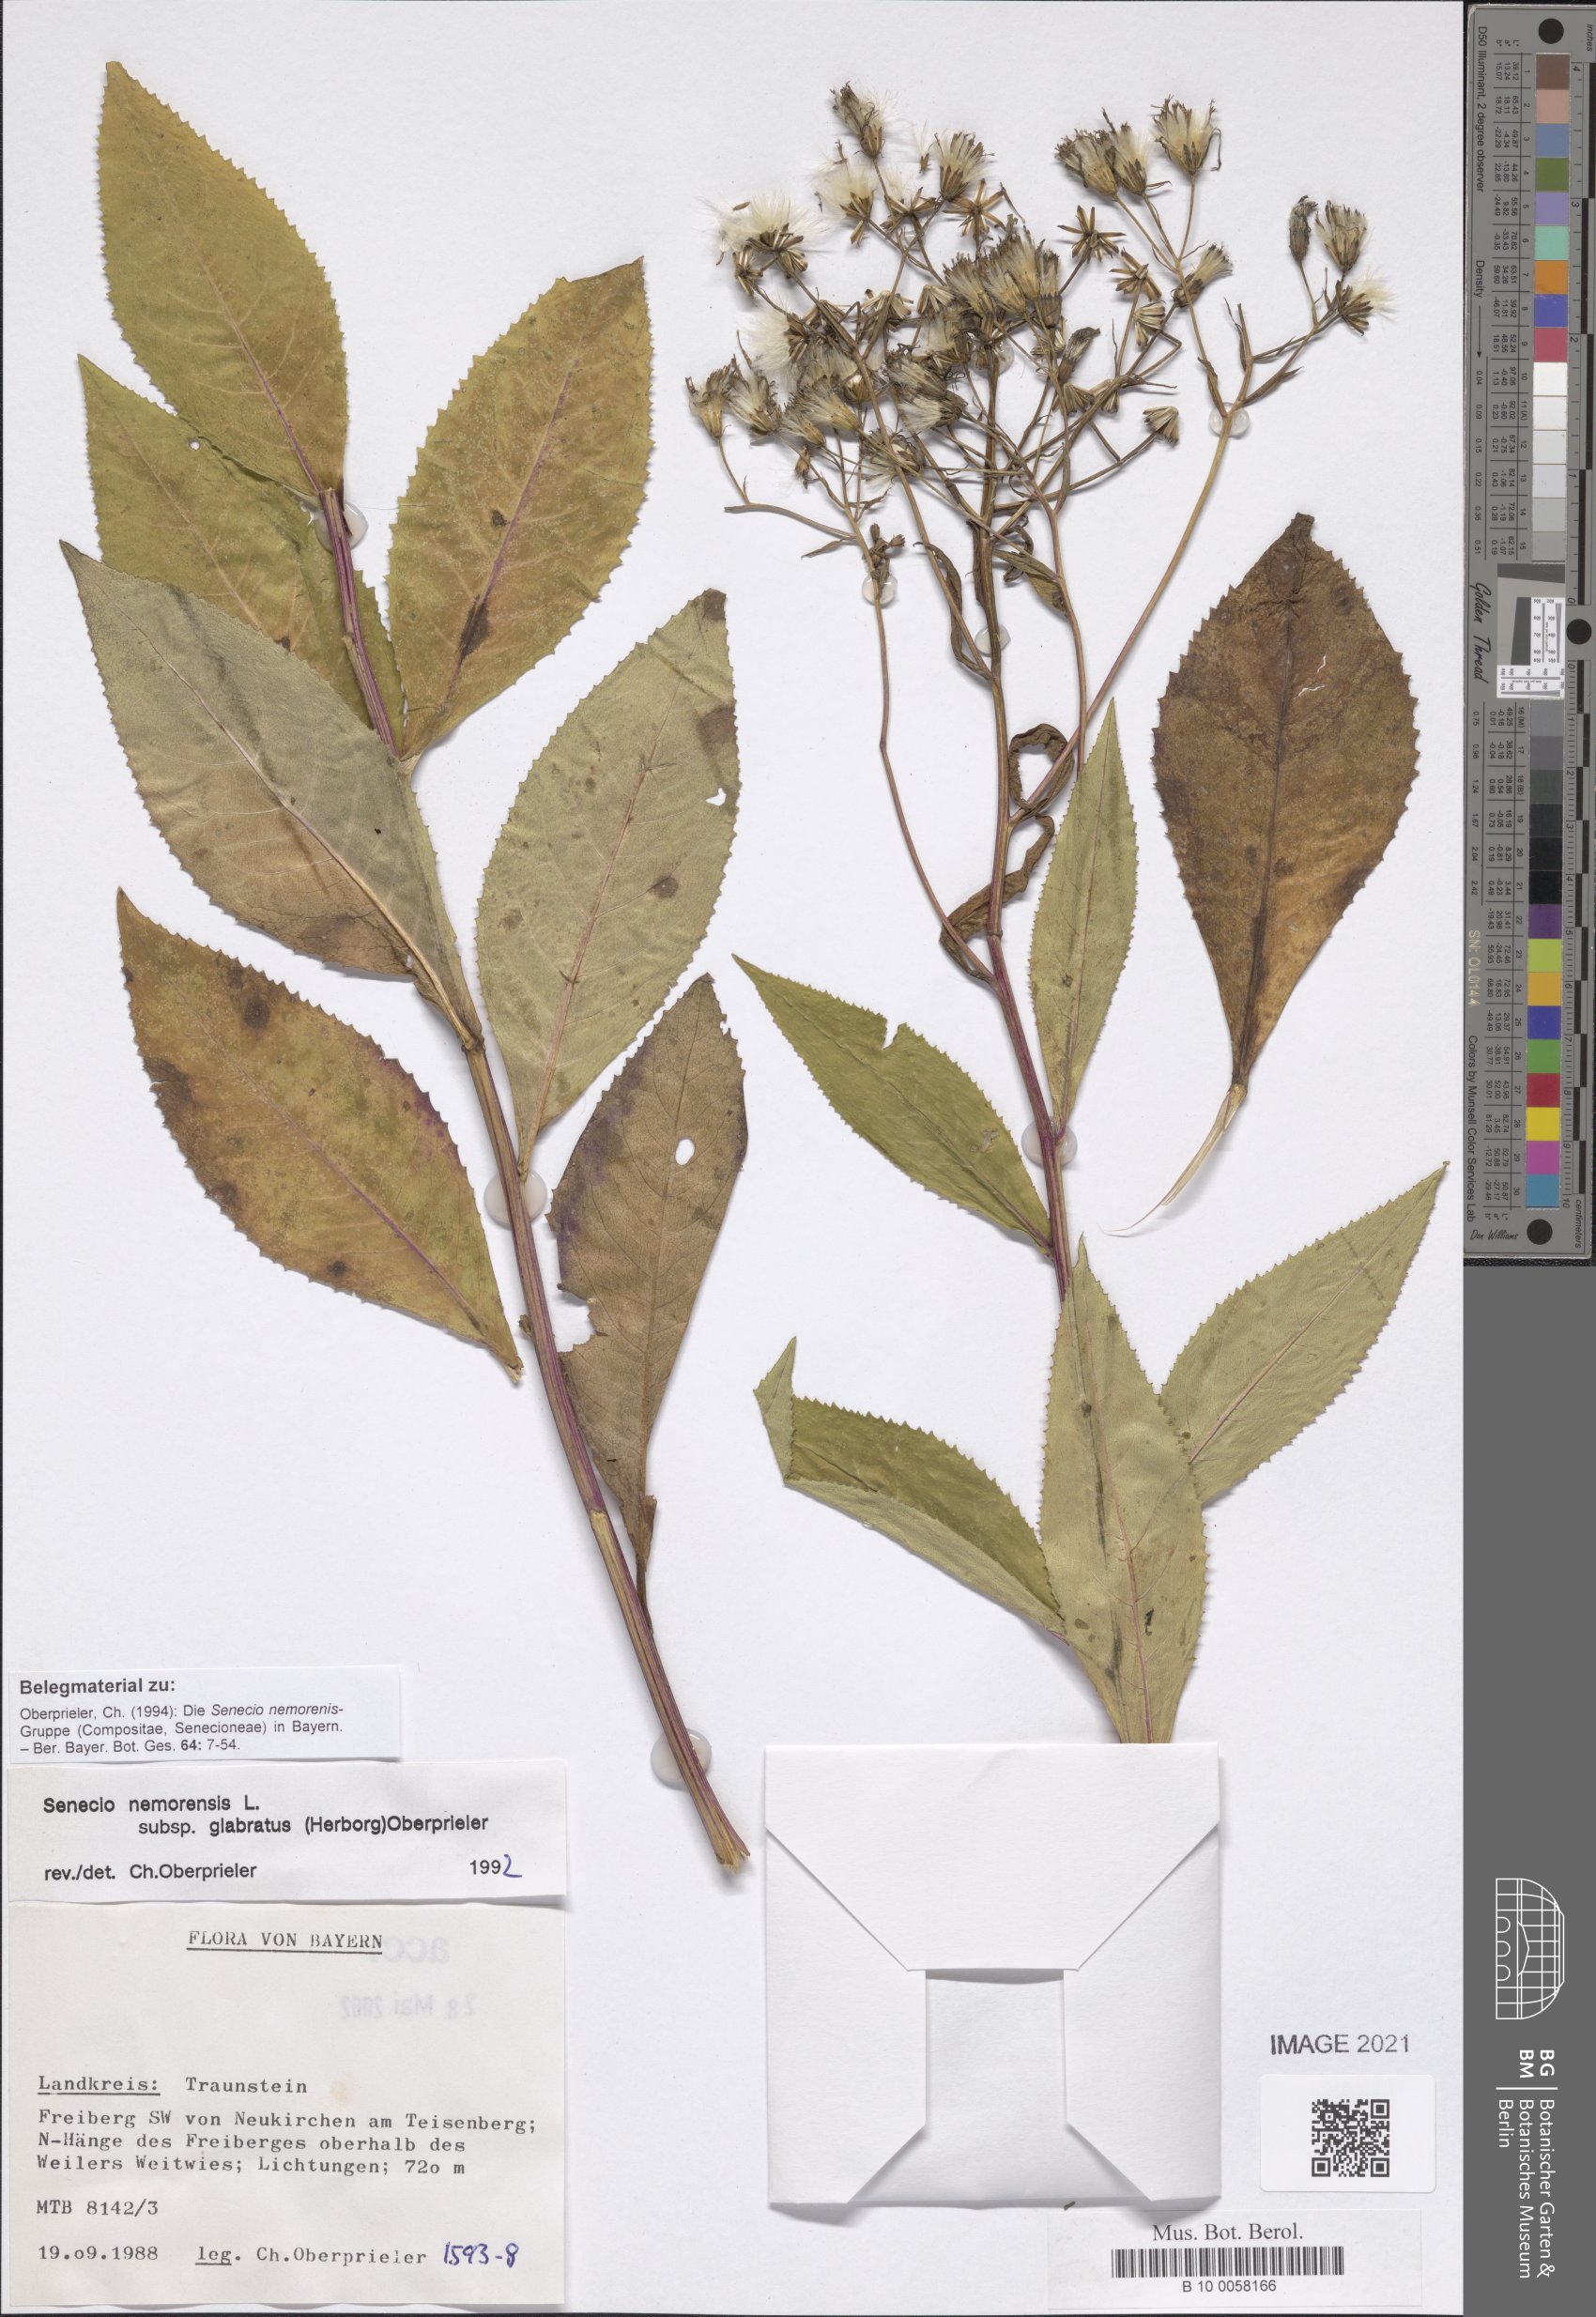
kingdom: Plantae
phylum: Tracheophyta
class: Magnoliopsida
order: Asterales
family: Asteraceae
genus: Senecio
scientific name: Senecio germanicus
